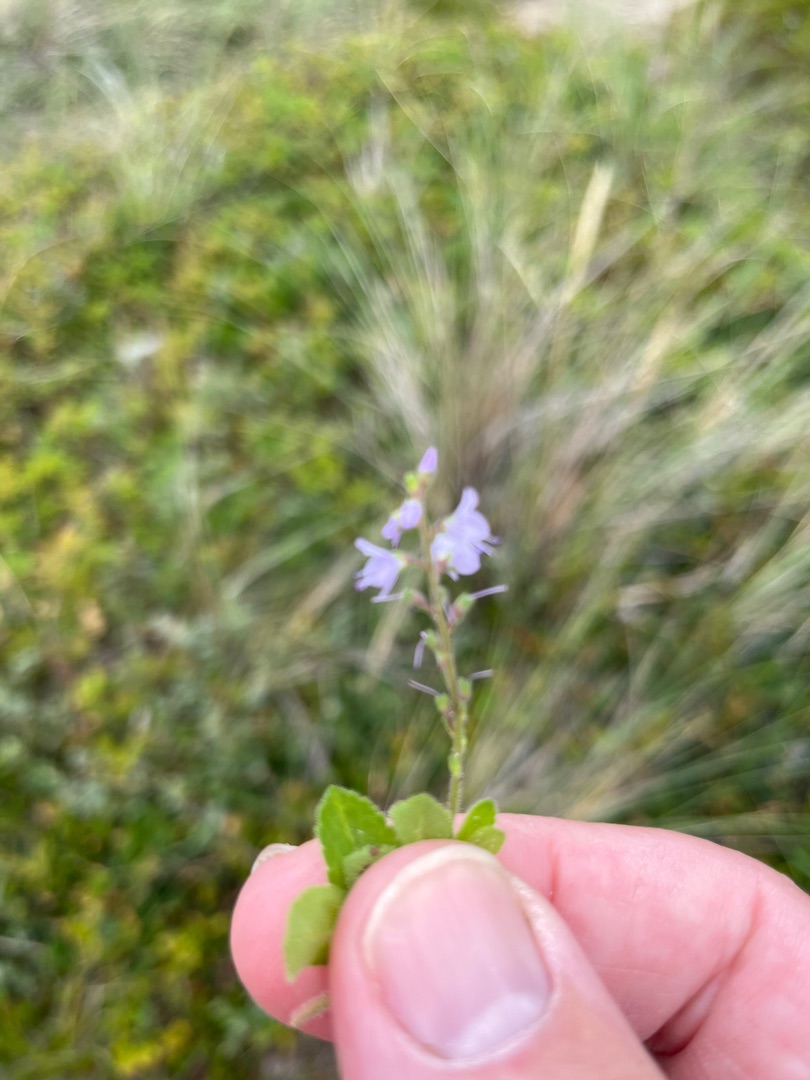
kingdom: Plantae
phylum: Tracheophyta
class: Magnoliopsida
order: Lamiales
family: Plantaginaceae
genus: Veronica
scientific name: Veronica officinalis
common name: Læge-ærenpris
